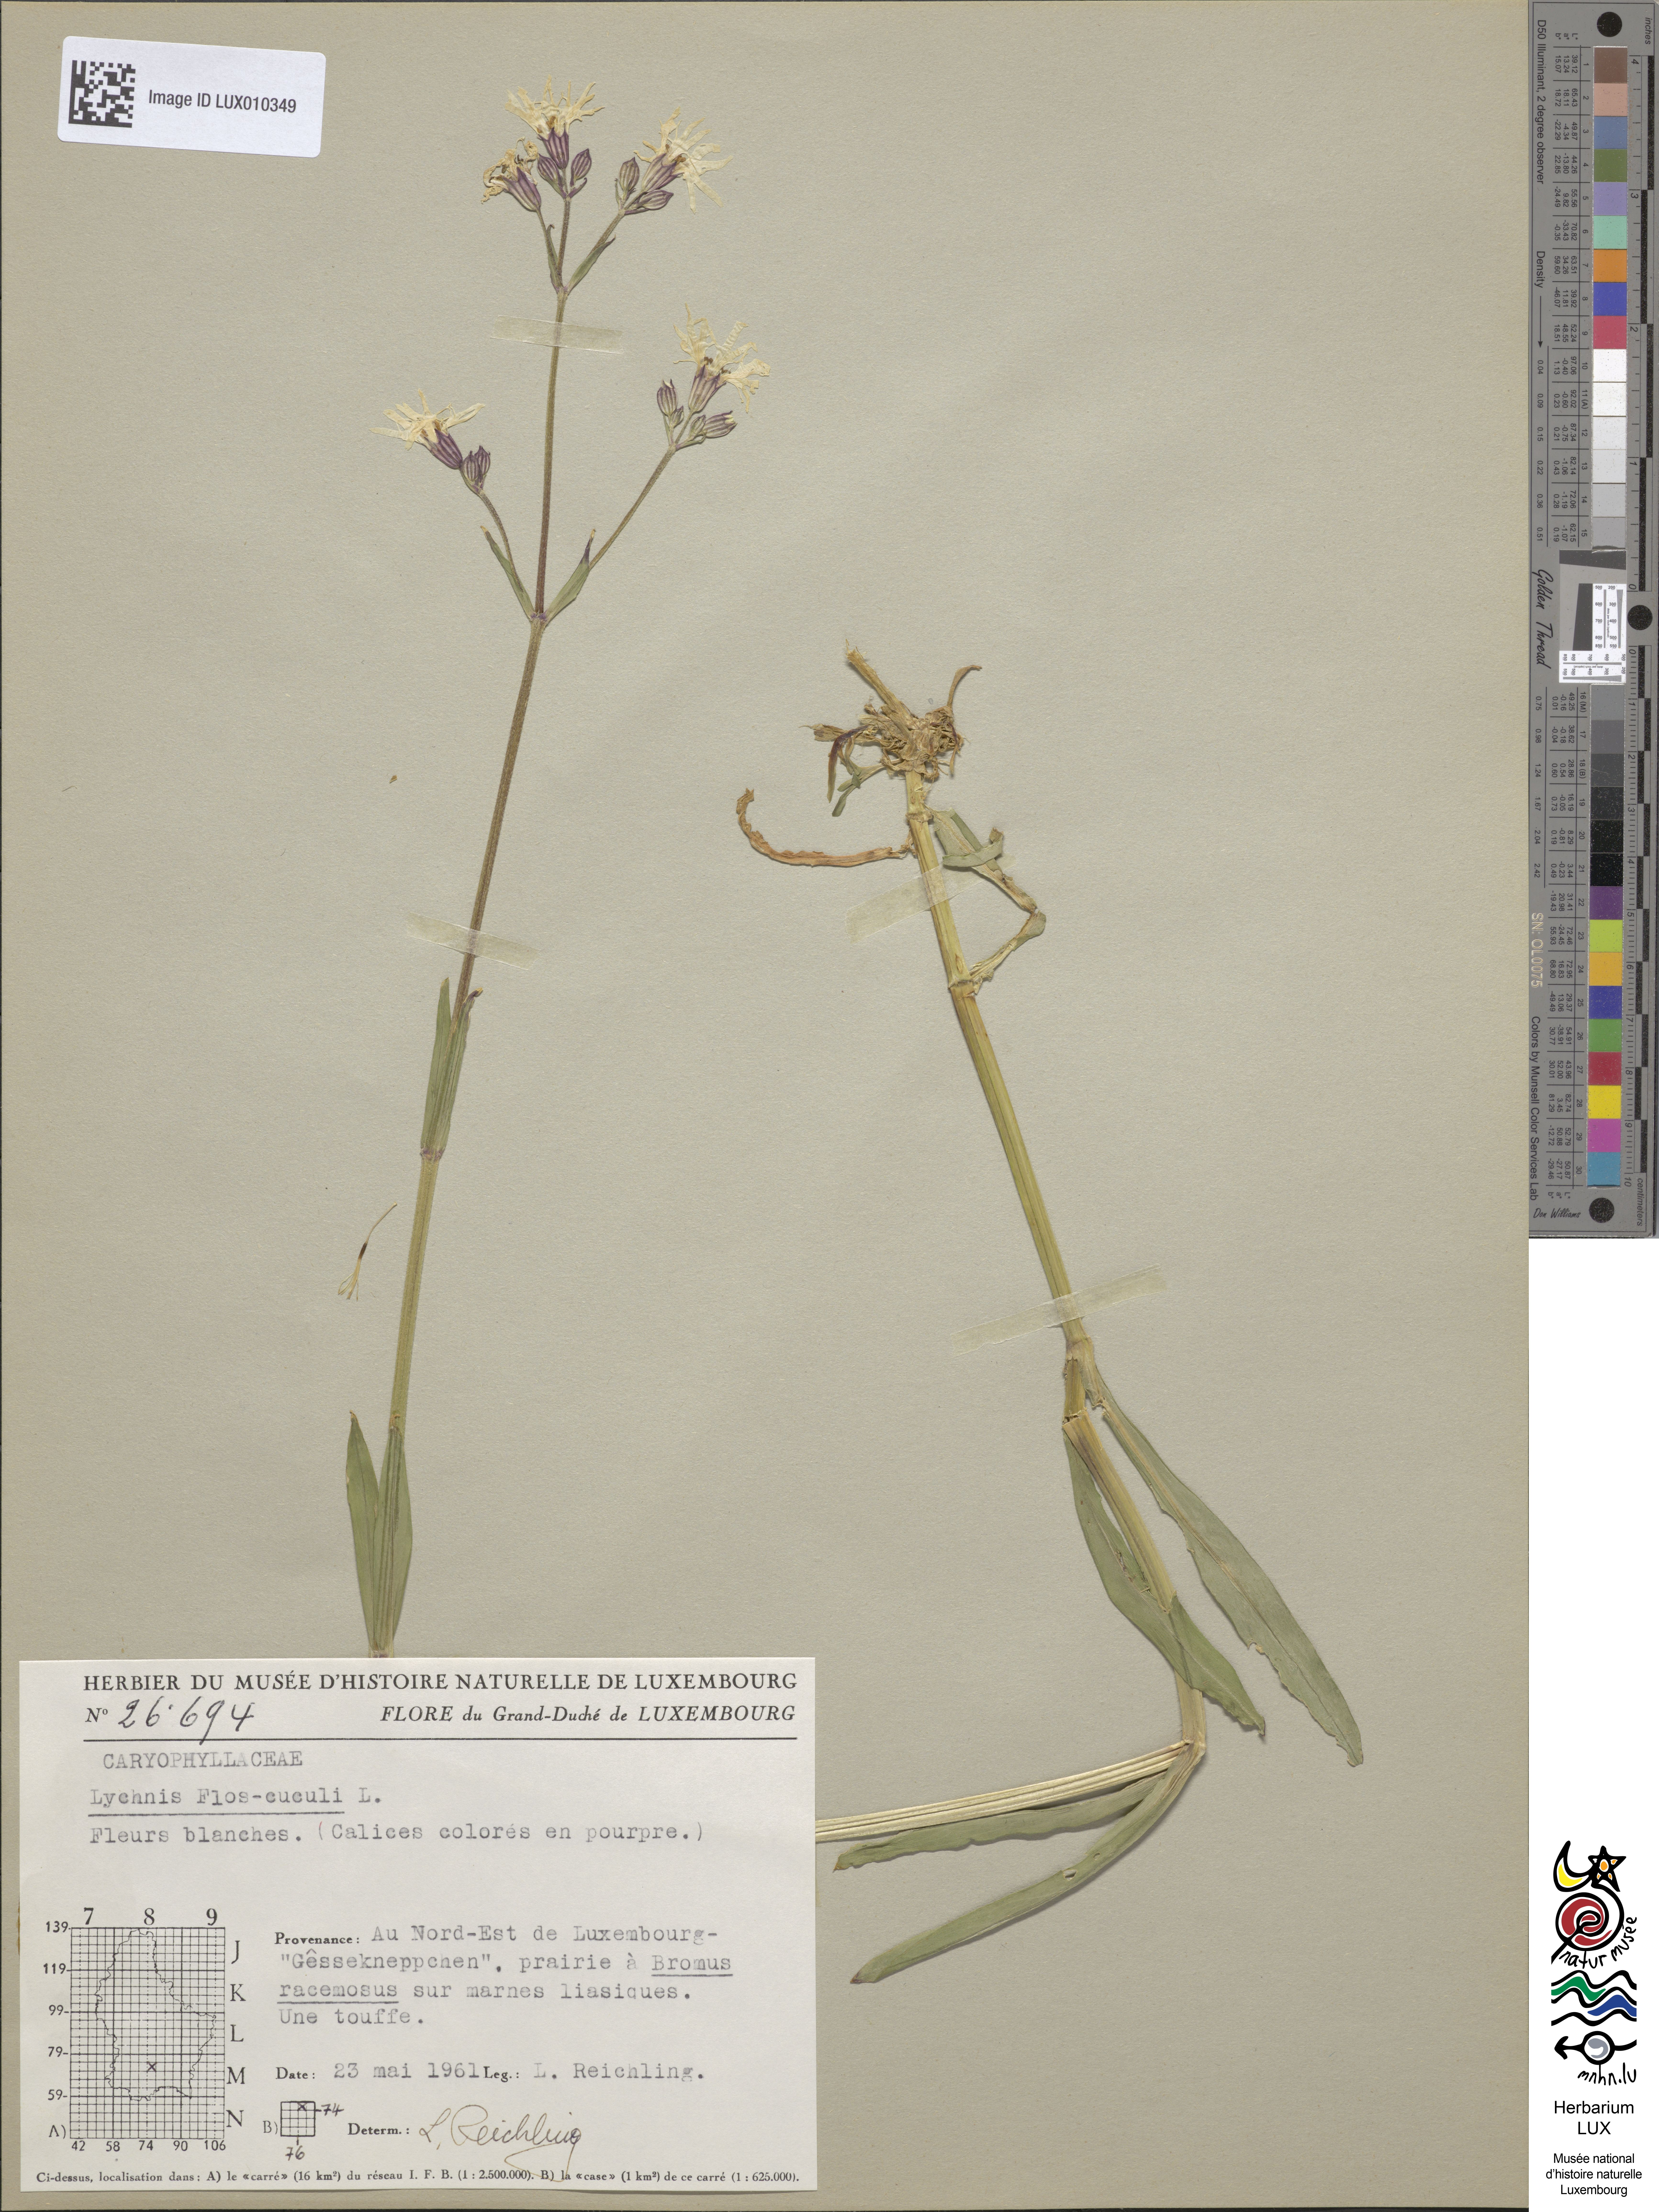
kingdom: Plantae
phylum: Tracheophyta
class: Magnoliopsida
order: Caryophyllales
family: Caryophyllaceae
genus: Silene
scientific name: Silene flos-cuculi
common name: Ragged-robin
